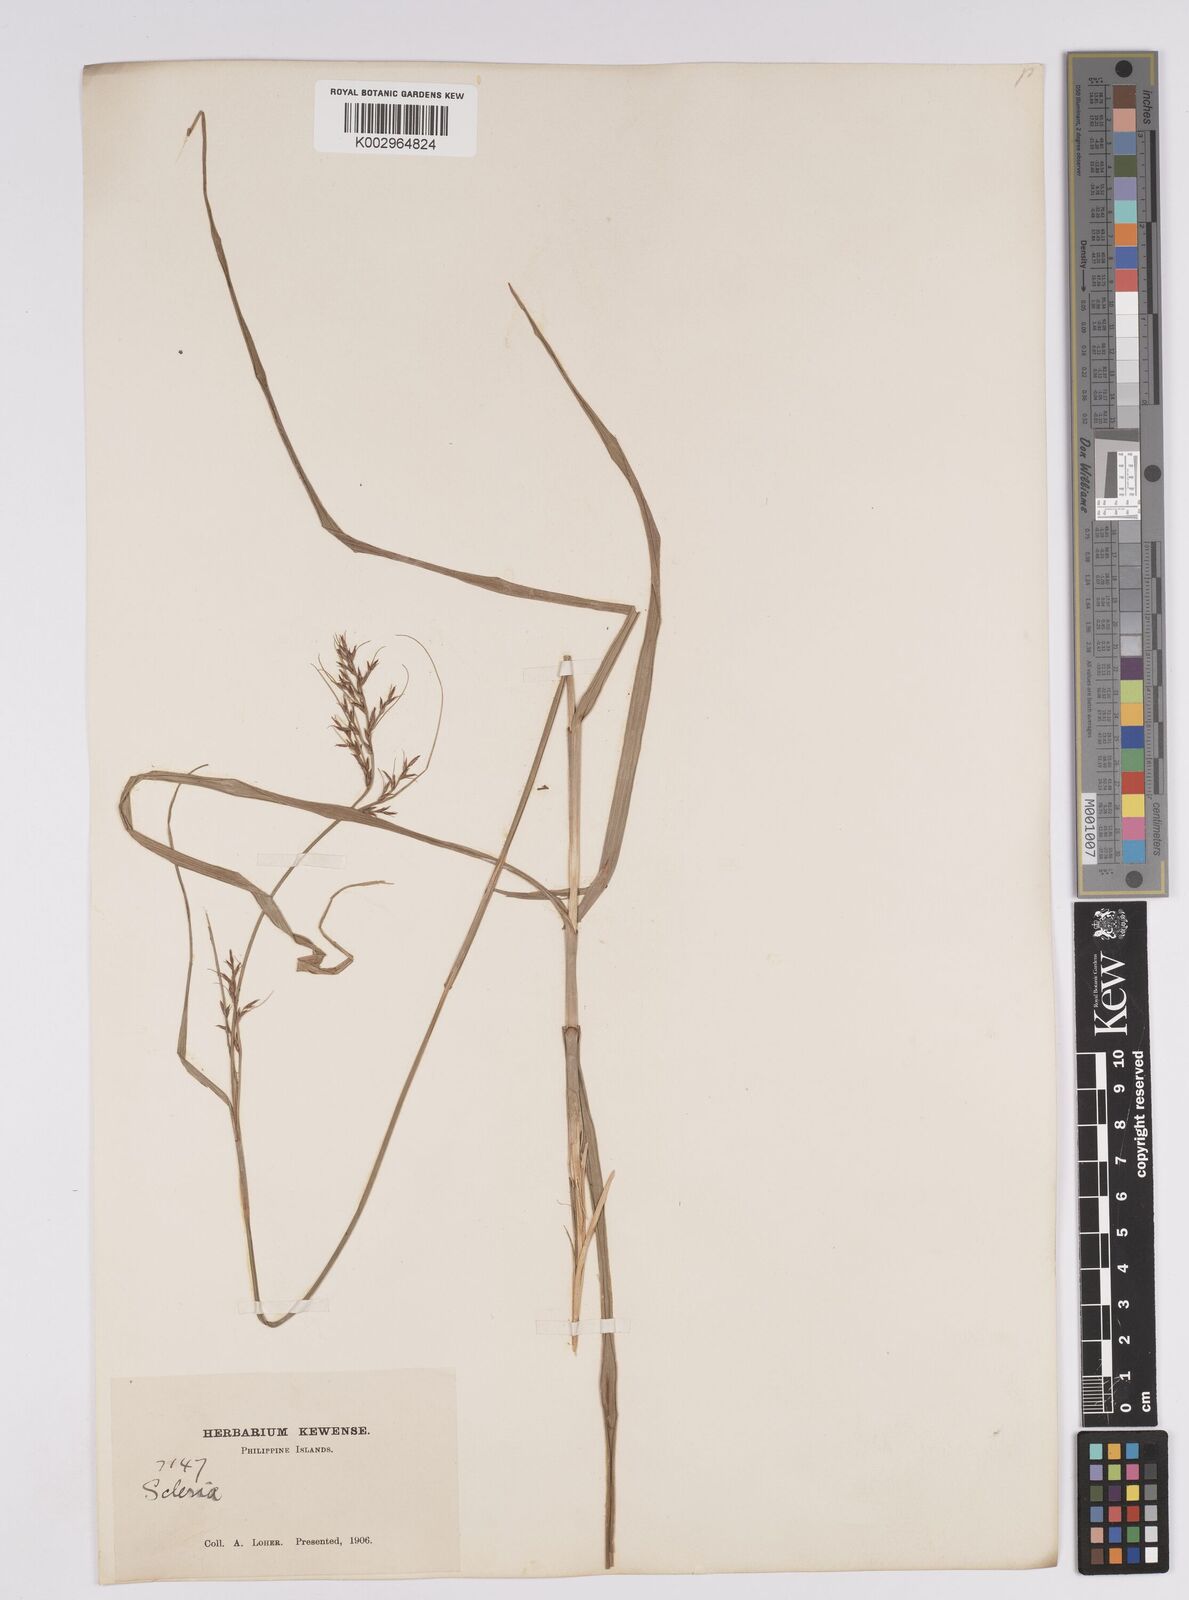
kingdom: Plantae
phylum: Tracheophyta
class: Liliopsida
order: Poales
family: Cyperaceae
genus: Scleria
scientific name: Scleria
